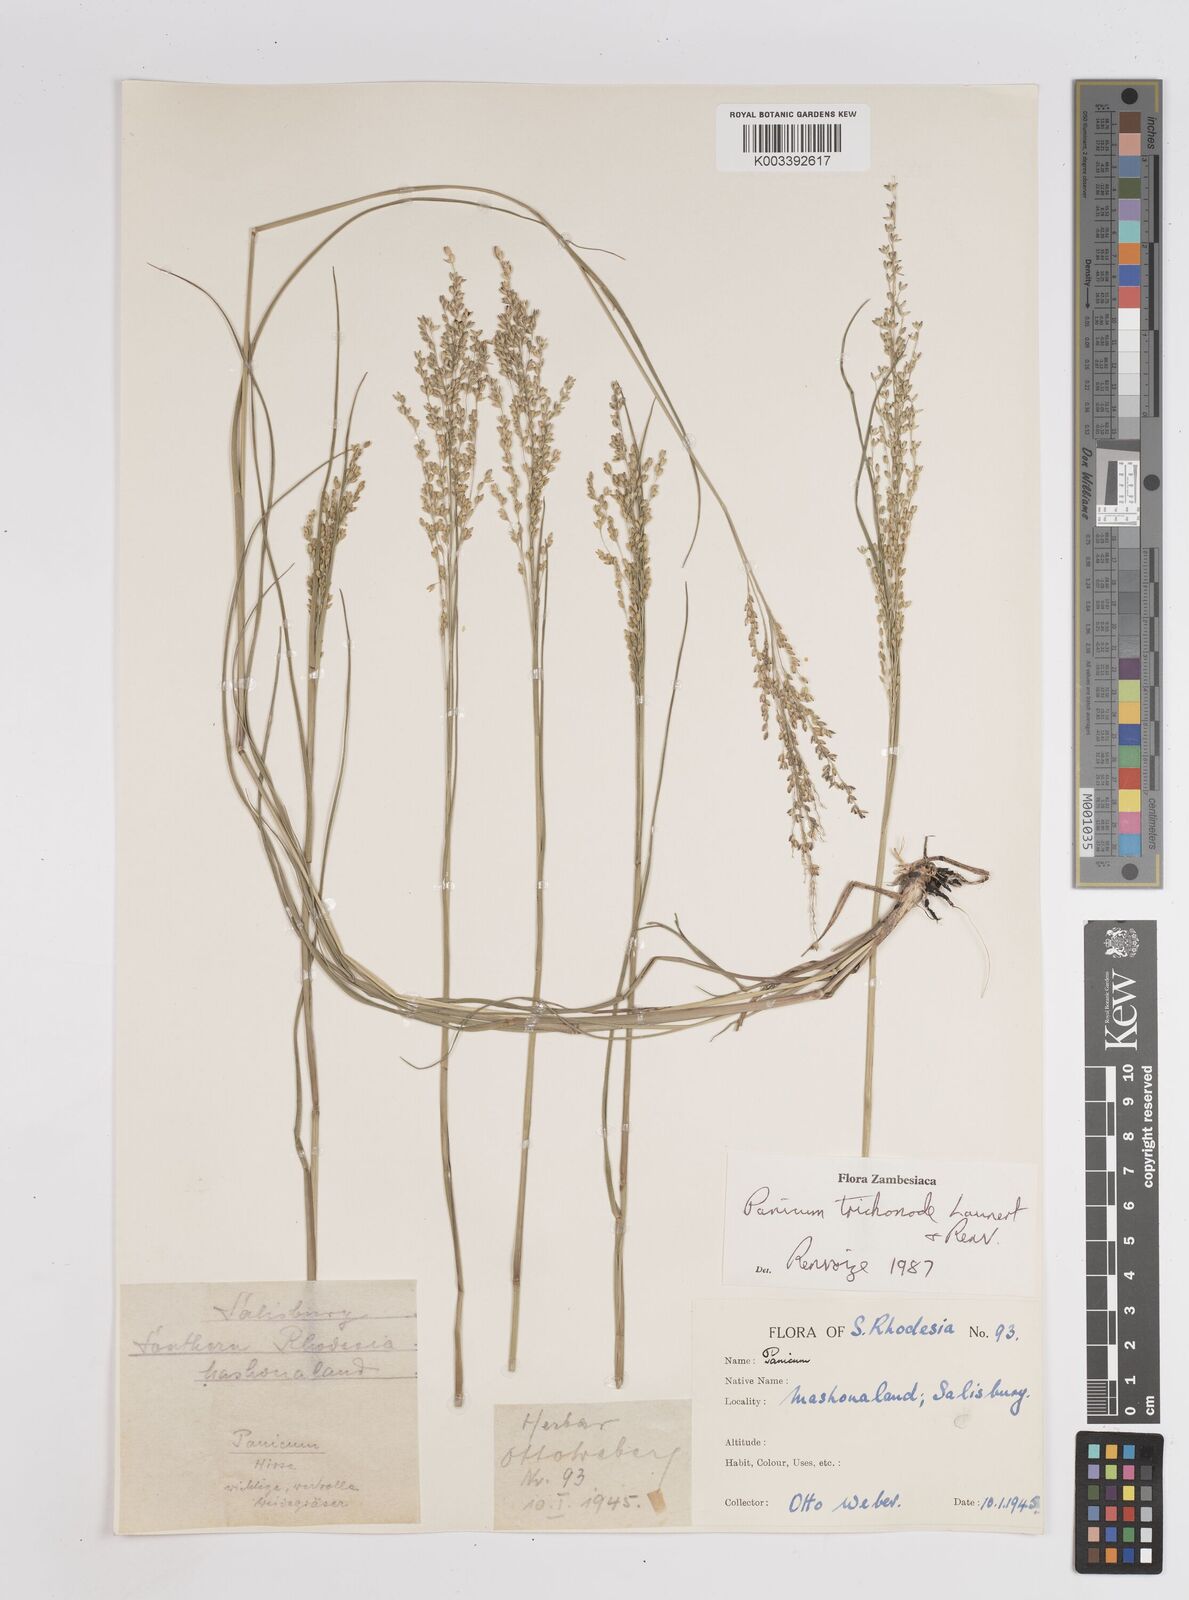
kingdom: Plantae
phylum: Tracheophyta
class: Liliopsida
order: Poales
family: Poaceae
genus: Panicum
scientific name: Panicum trichonode
